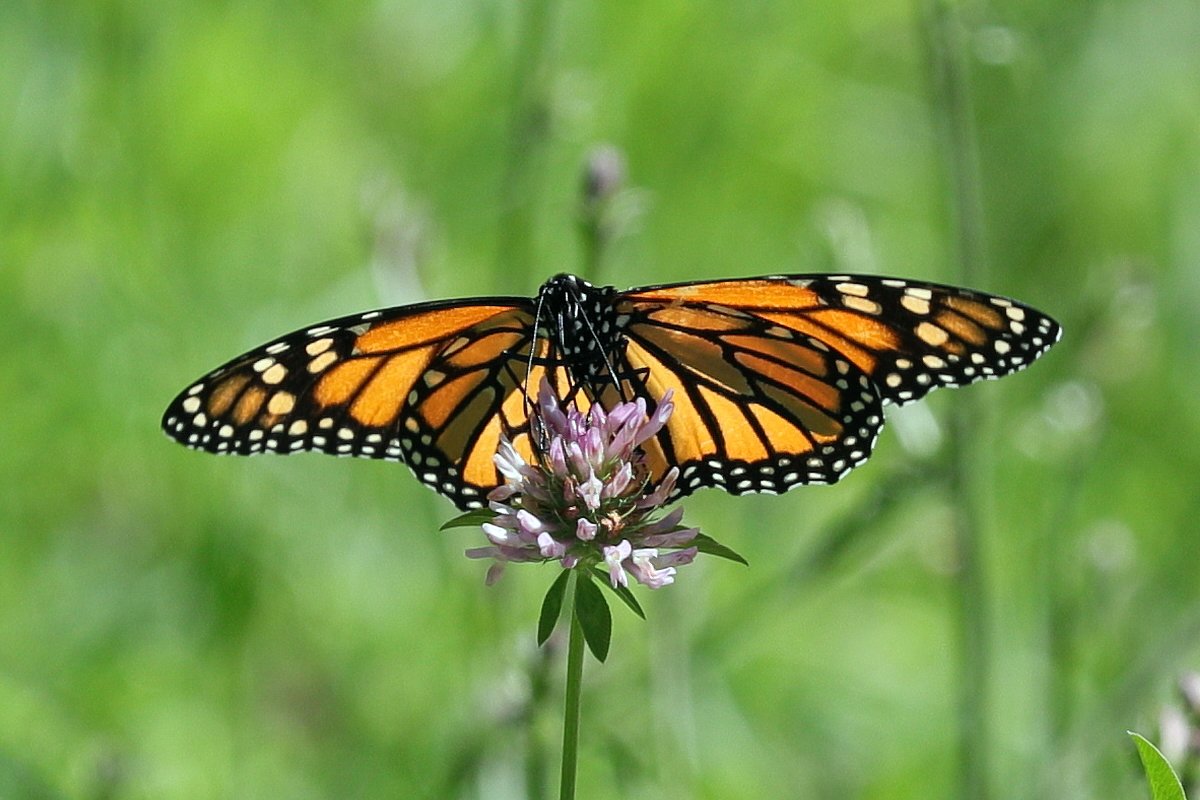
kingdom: Animalia
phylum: Arthropoda
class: Insecta
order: Lepidoptera
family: Nymphalidae
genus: Danaus
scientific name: Danaus plexippus
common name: Monarch
